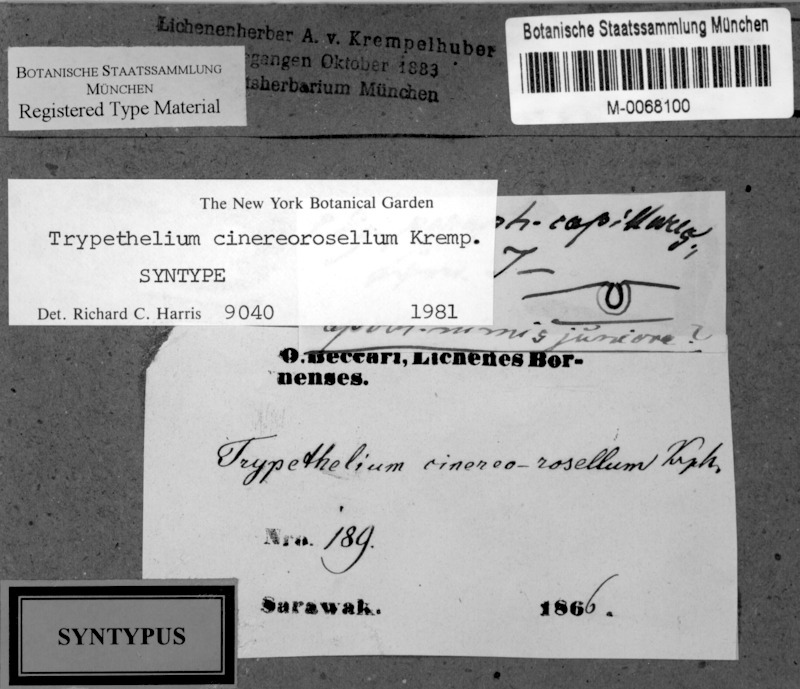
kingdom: Fungi
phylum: Ascomycota
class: Dothideomycetes
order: Trypetheliales
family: Trypetheliaceae
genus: Astrothelium
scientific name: Astrothelium cinereorosellum
